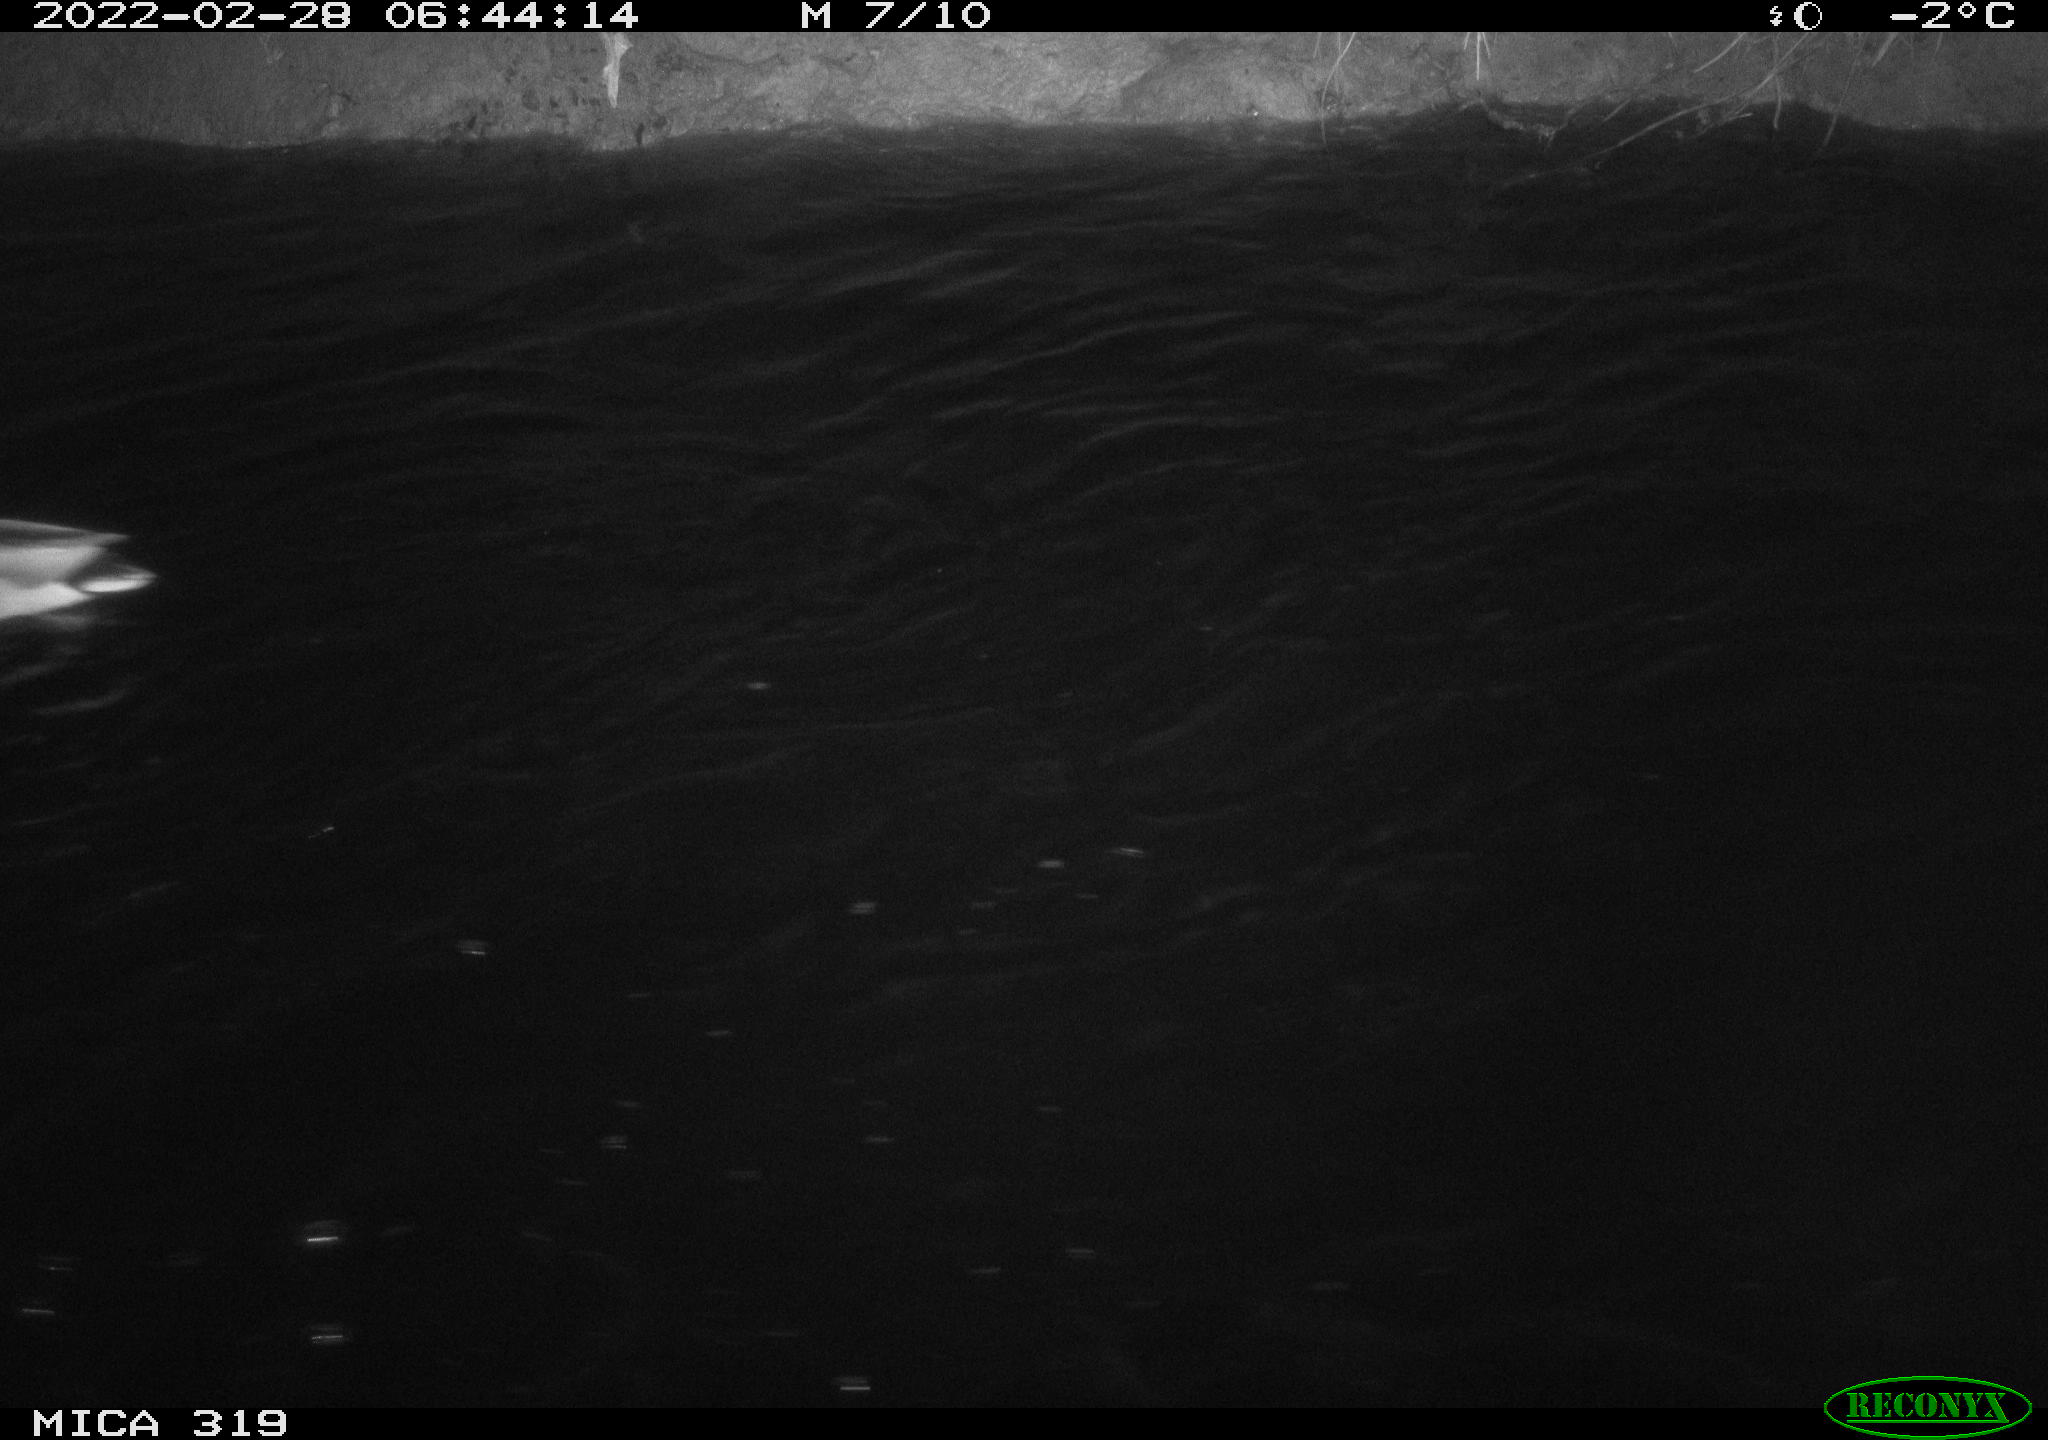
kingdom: Animalia
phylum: Chordata
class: Aves
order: Anseriformes
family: Anatidae
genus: Anas
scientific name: Anas platyrhynchos
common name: Mallard
